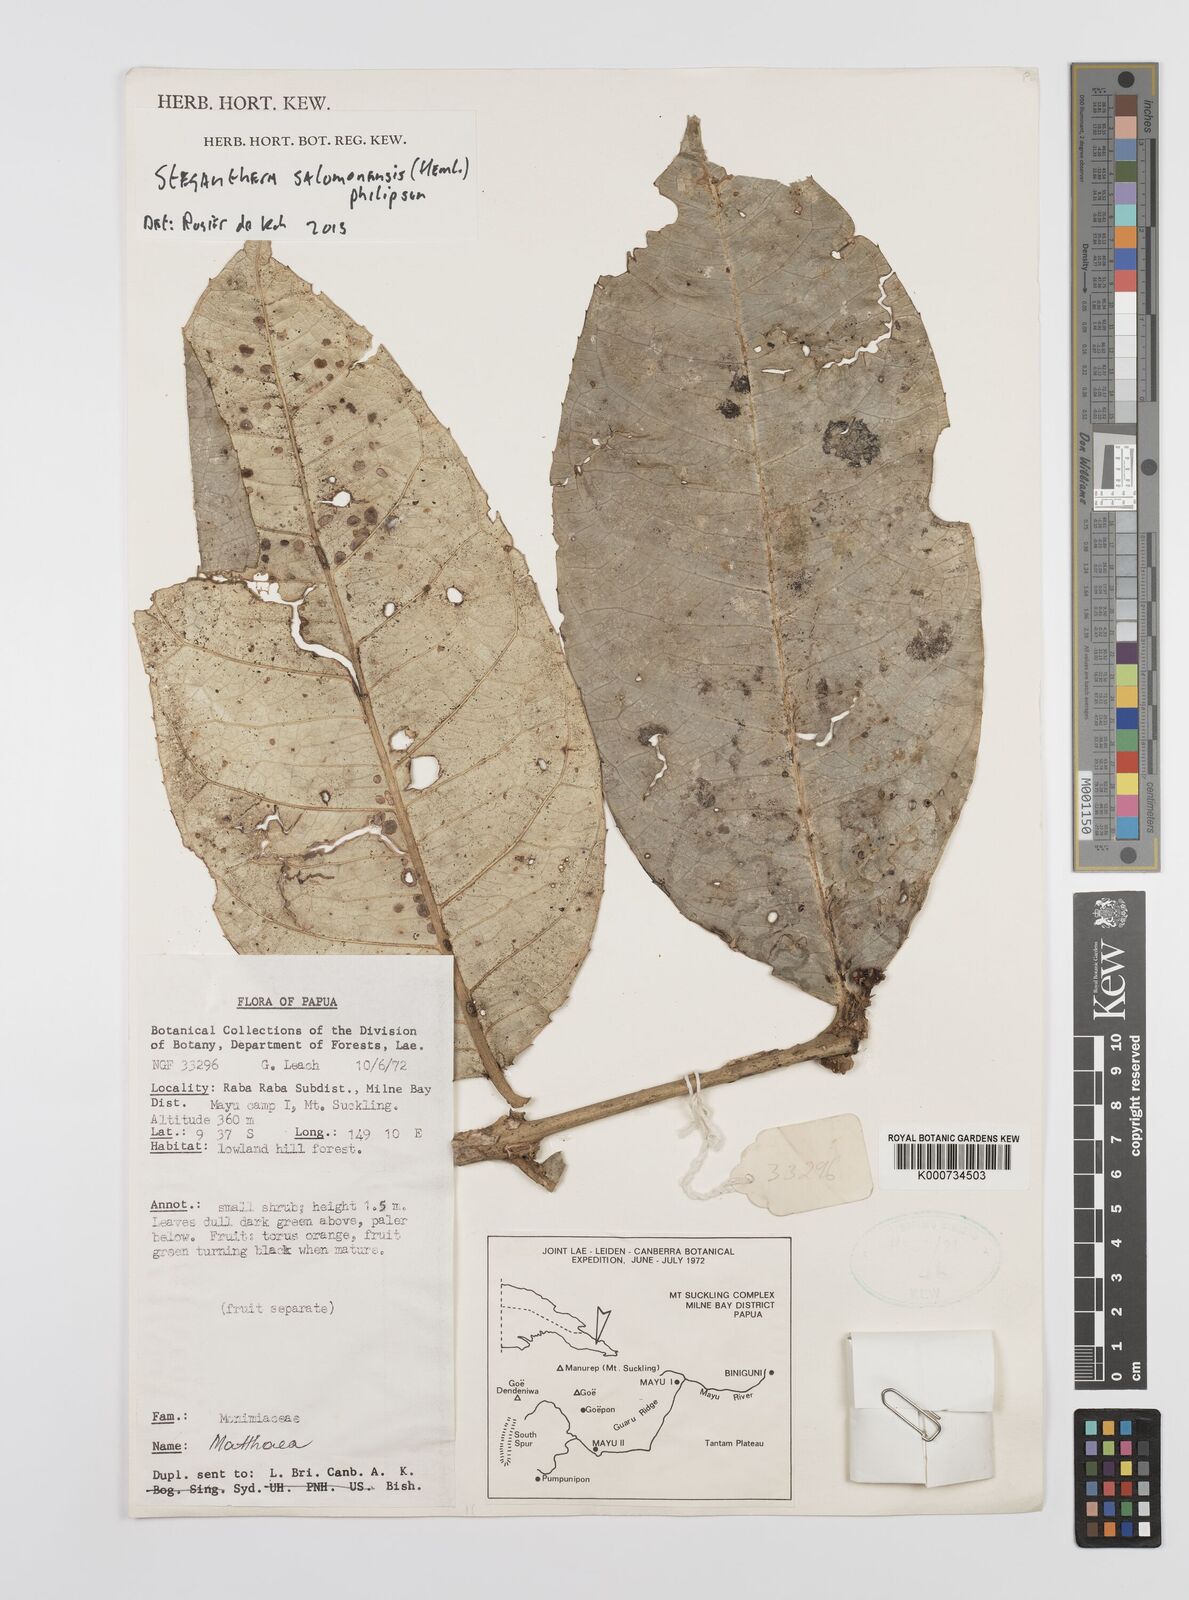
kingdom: Plantae
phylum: Tracheophyta
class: Magnoliopsida
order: Laurales
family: Monimiaceae
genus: Steganthera
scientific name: Steganthera salomonensis
